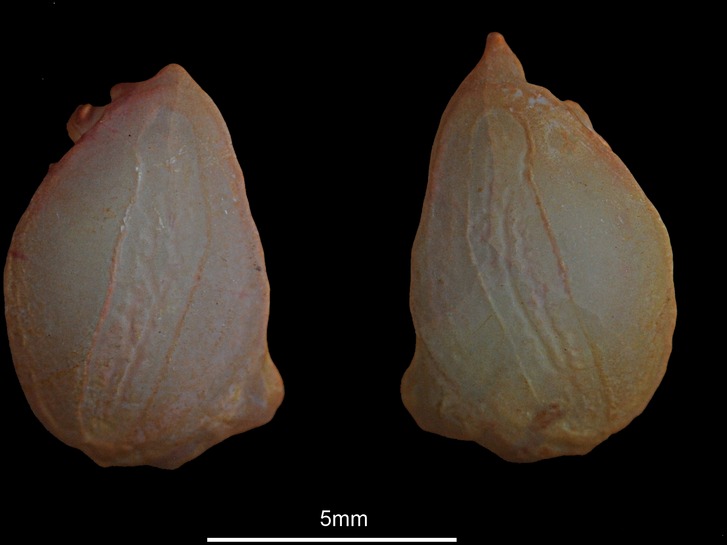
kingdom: Animalia
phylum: Chordata
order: Ophidiiformes
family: Ophidiidae
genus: Ophidion
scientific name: Ophidion barbatum
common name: Snake blenny
